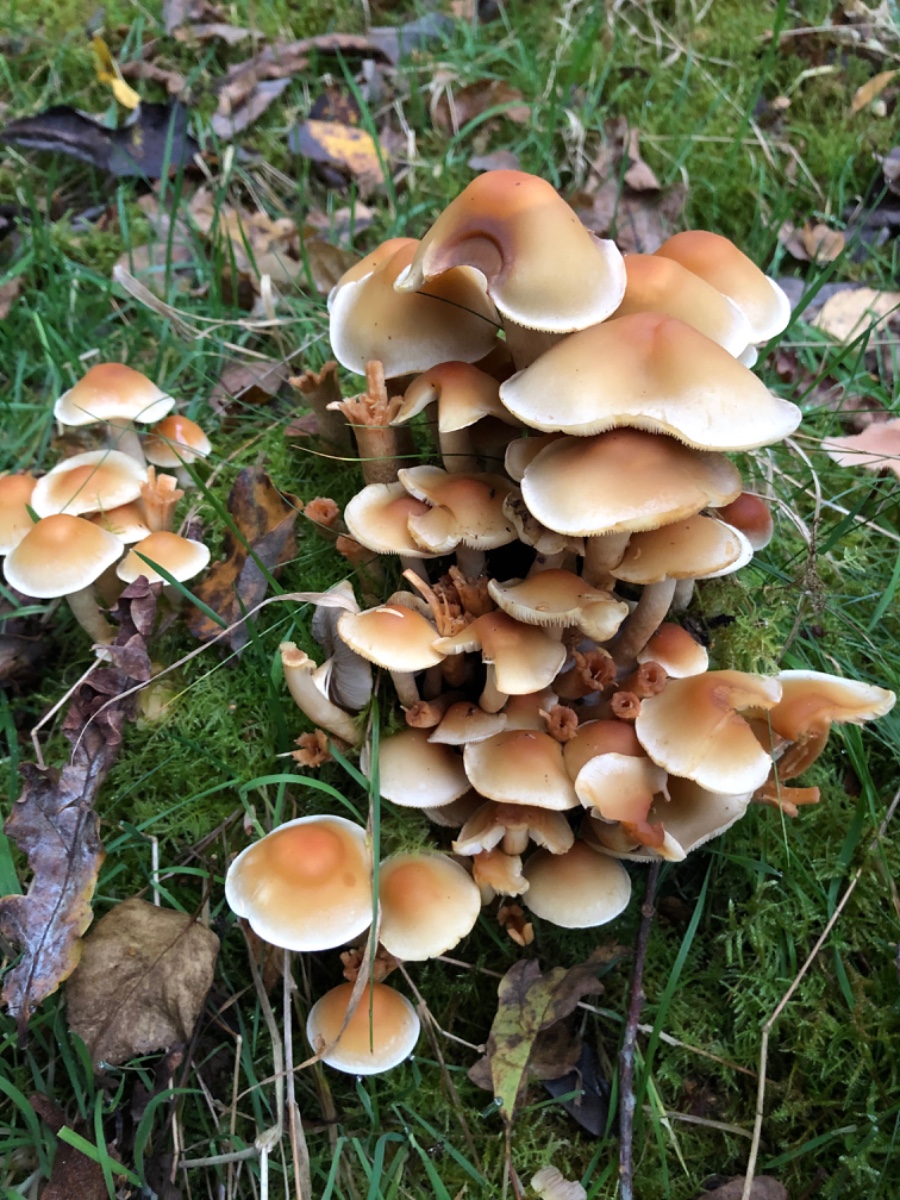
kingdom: Fungi
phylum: Basidiomycota
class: Agaricomycetes
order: Agaricales
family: Strophariaceae
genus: Hypholoma
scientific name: Hypholoma capnoides
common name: gran-svovlhat
